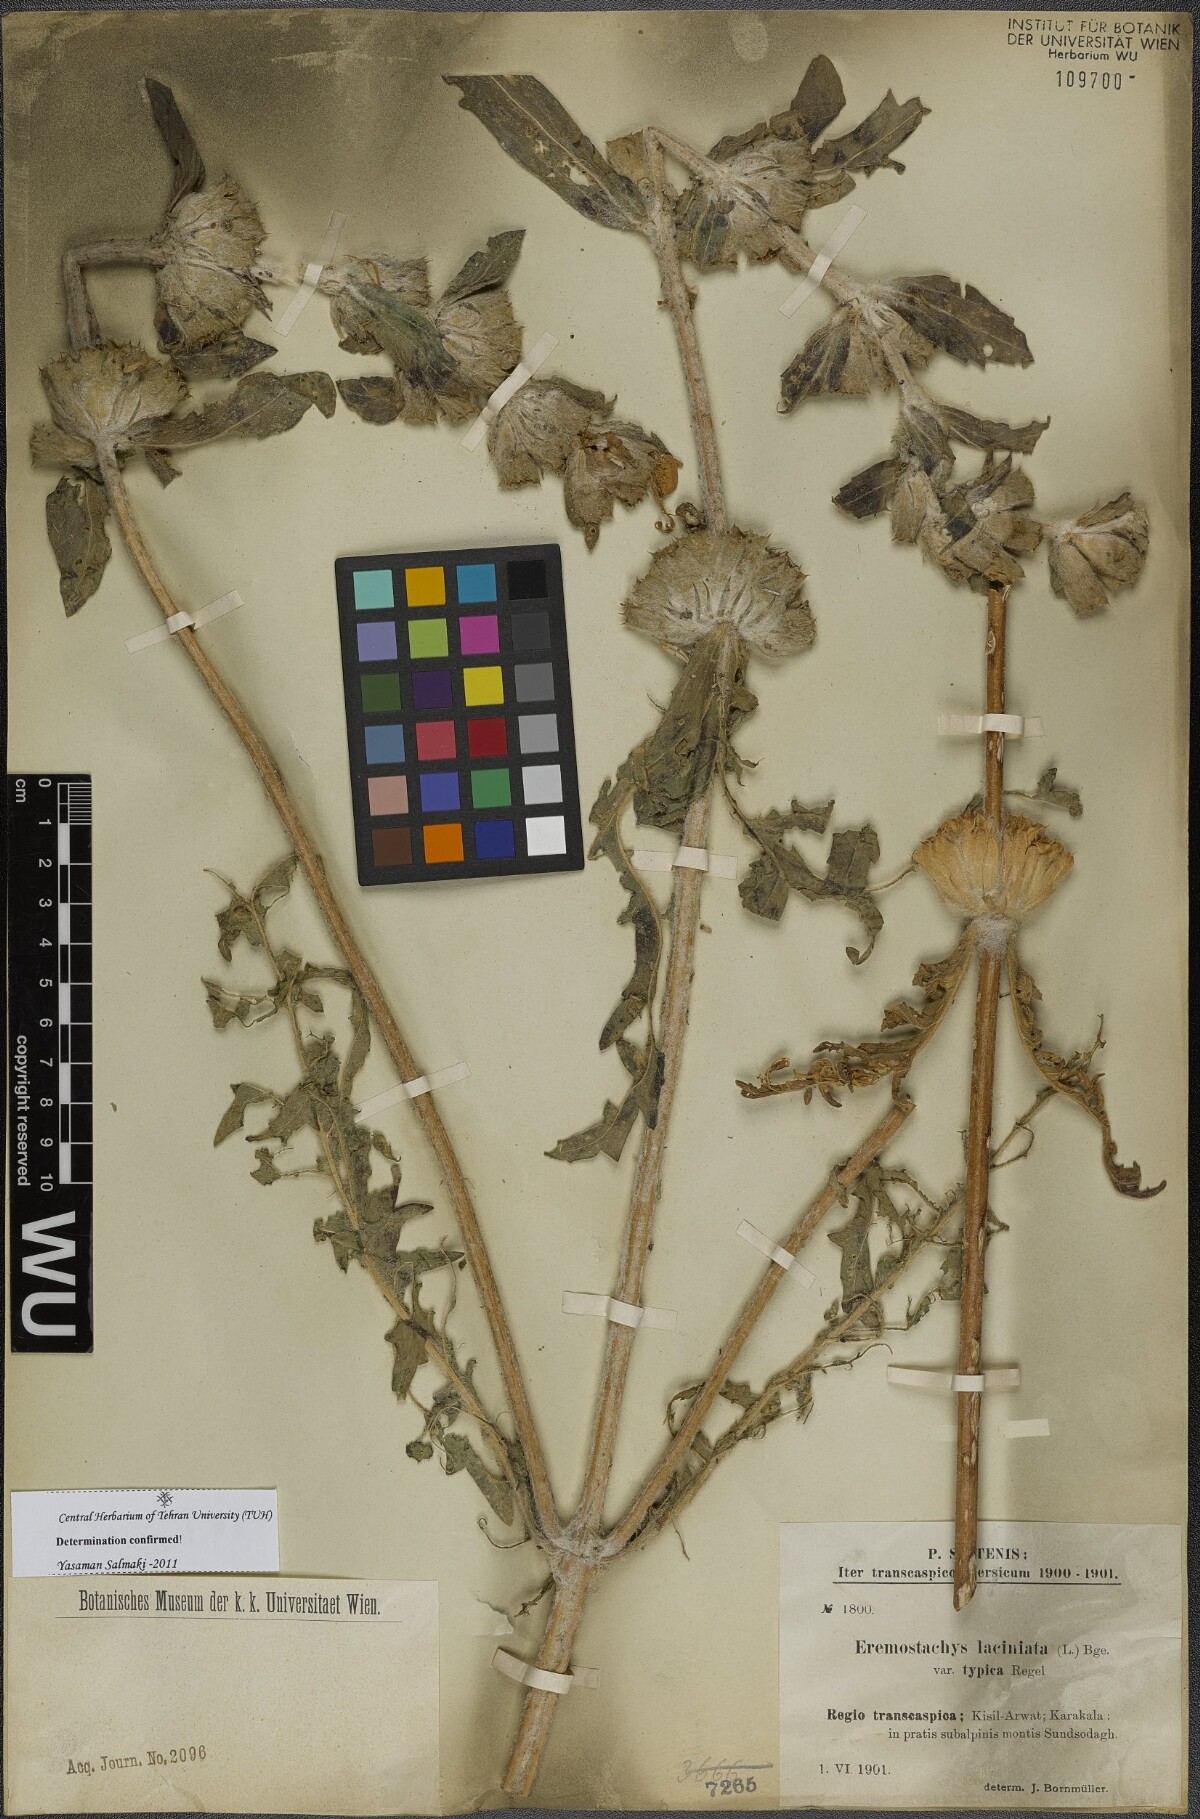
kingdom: Plantae
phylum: Tracheophyta
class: Magnoliopsida
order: Lamiales
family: Lamiaceae
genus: Phlomoides
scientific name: Phlomoides laciniata
